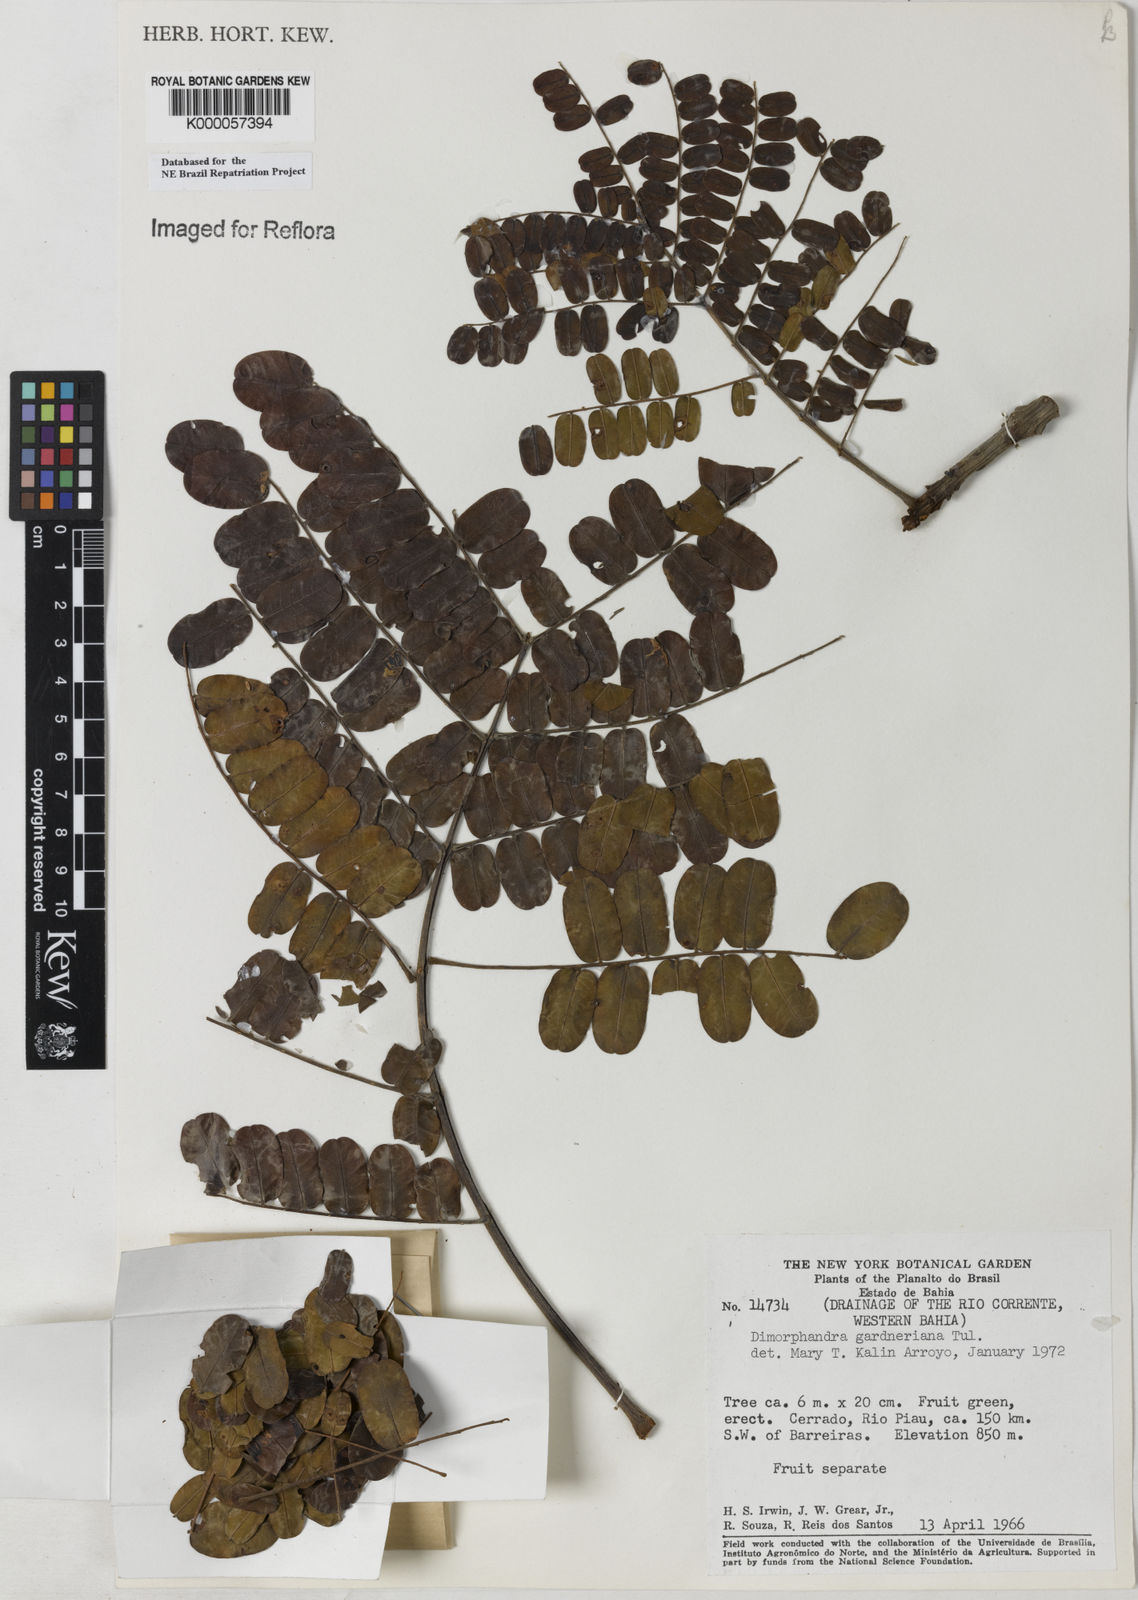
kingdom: Plantae
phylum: Tracheophyta
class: Magnoliopsida
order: Fabales
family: Fabaceae
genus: Dimorphandra
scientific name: Dimorphandra gardneriana
